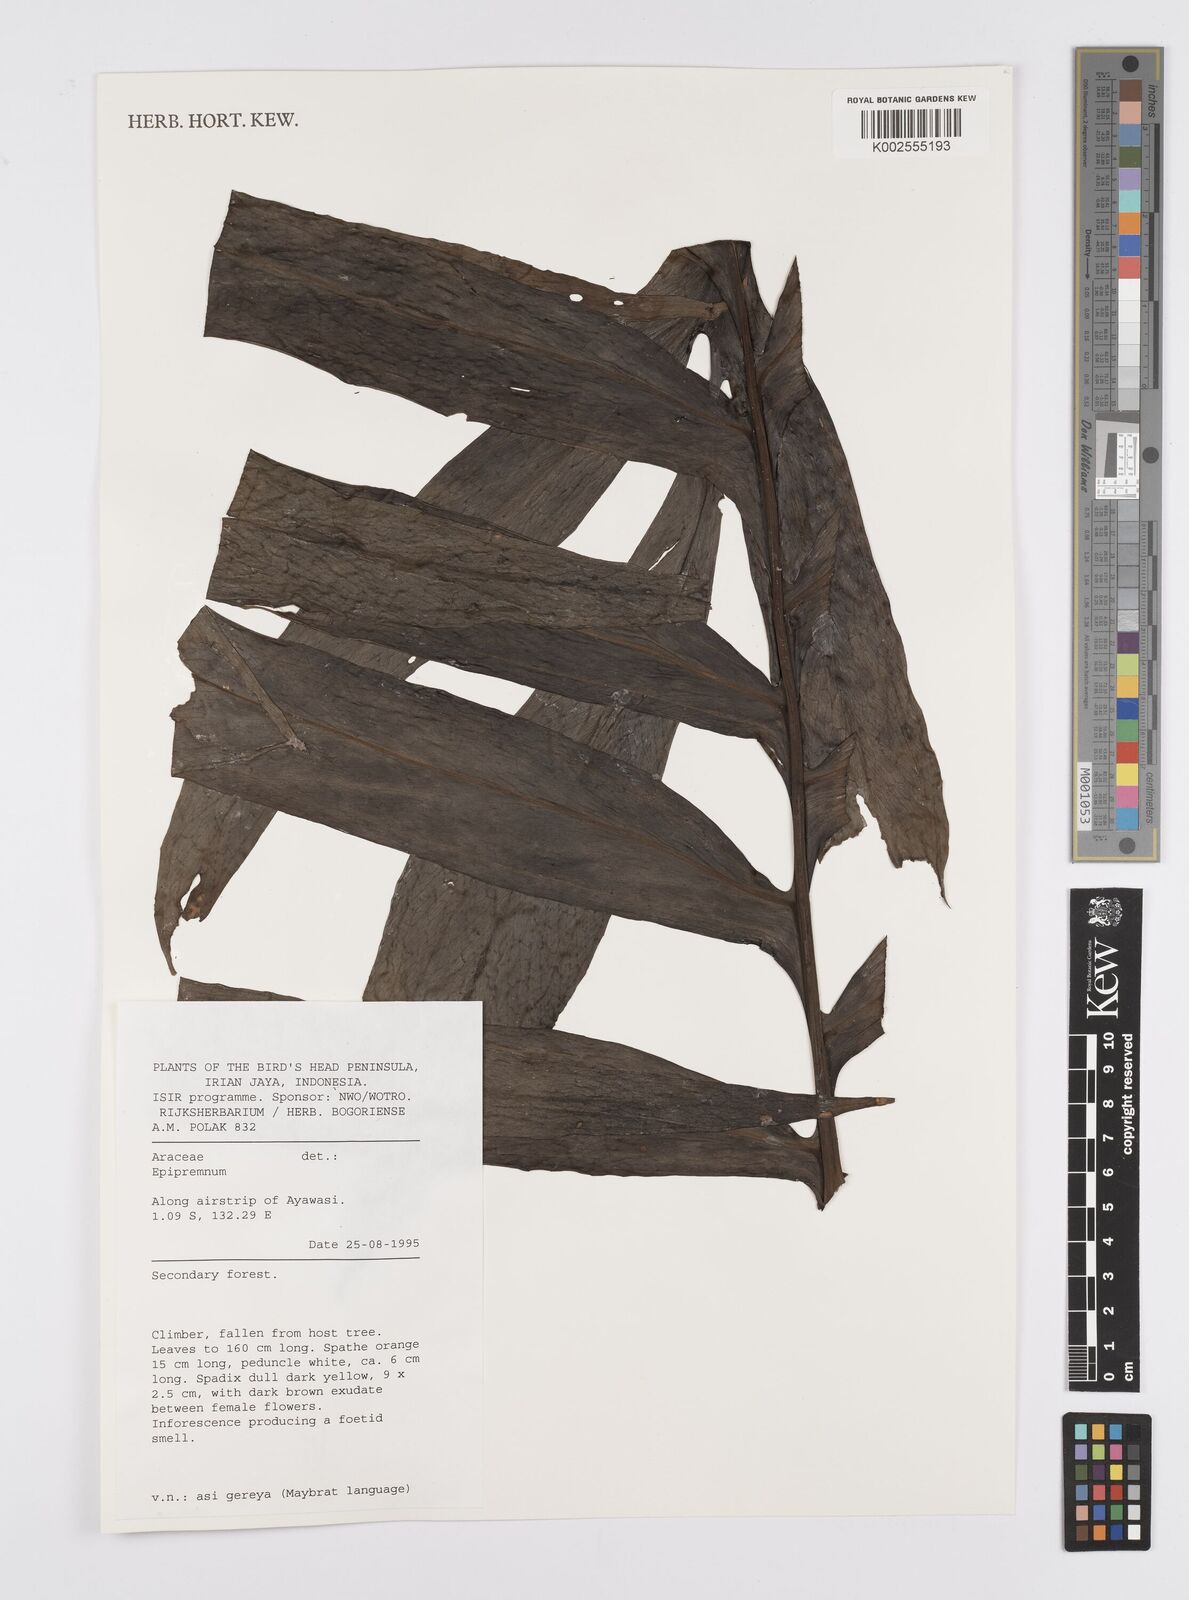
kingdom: Plantae
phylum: Tracheophyta
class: Liliopsida
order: Alismatales
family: Araceae
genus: Amydrium
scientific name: Amydrium zippelianum
